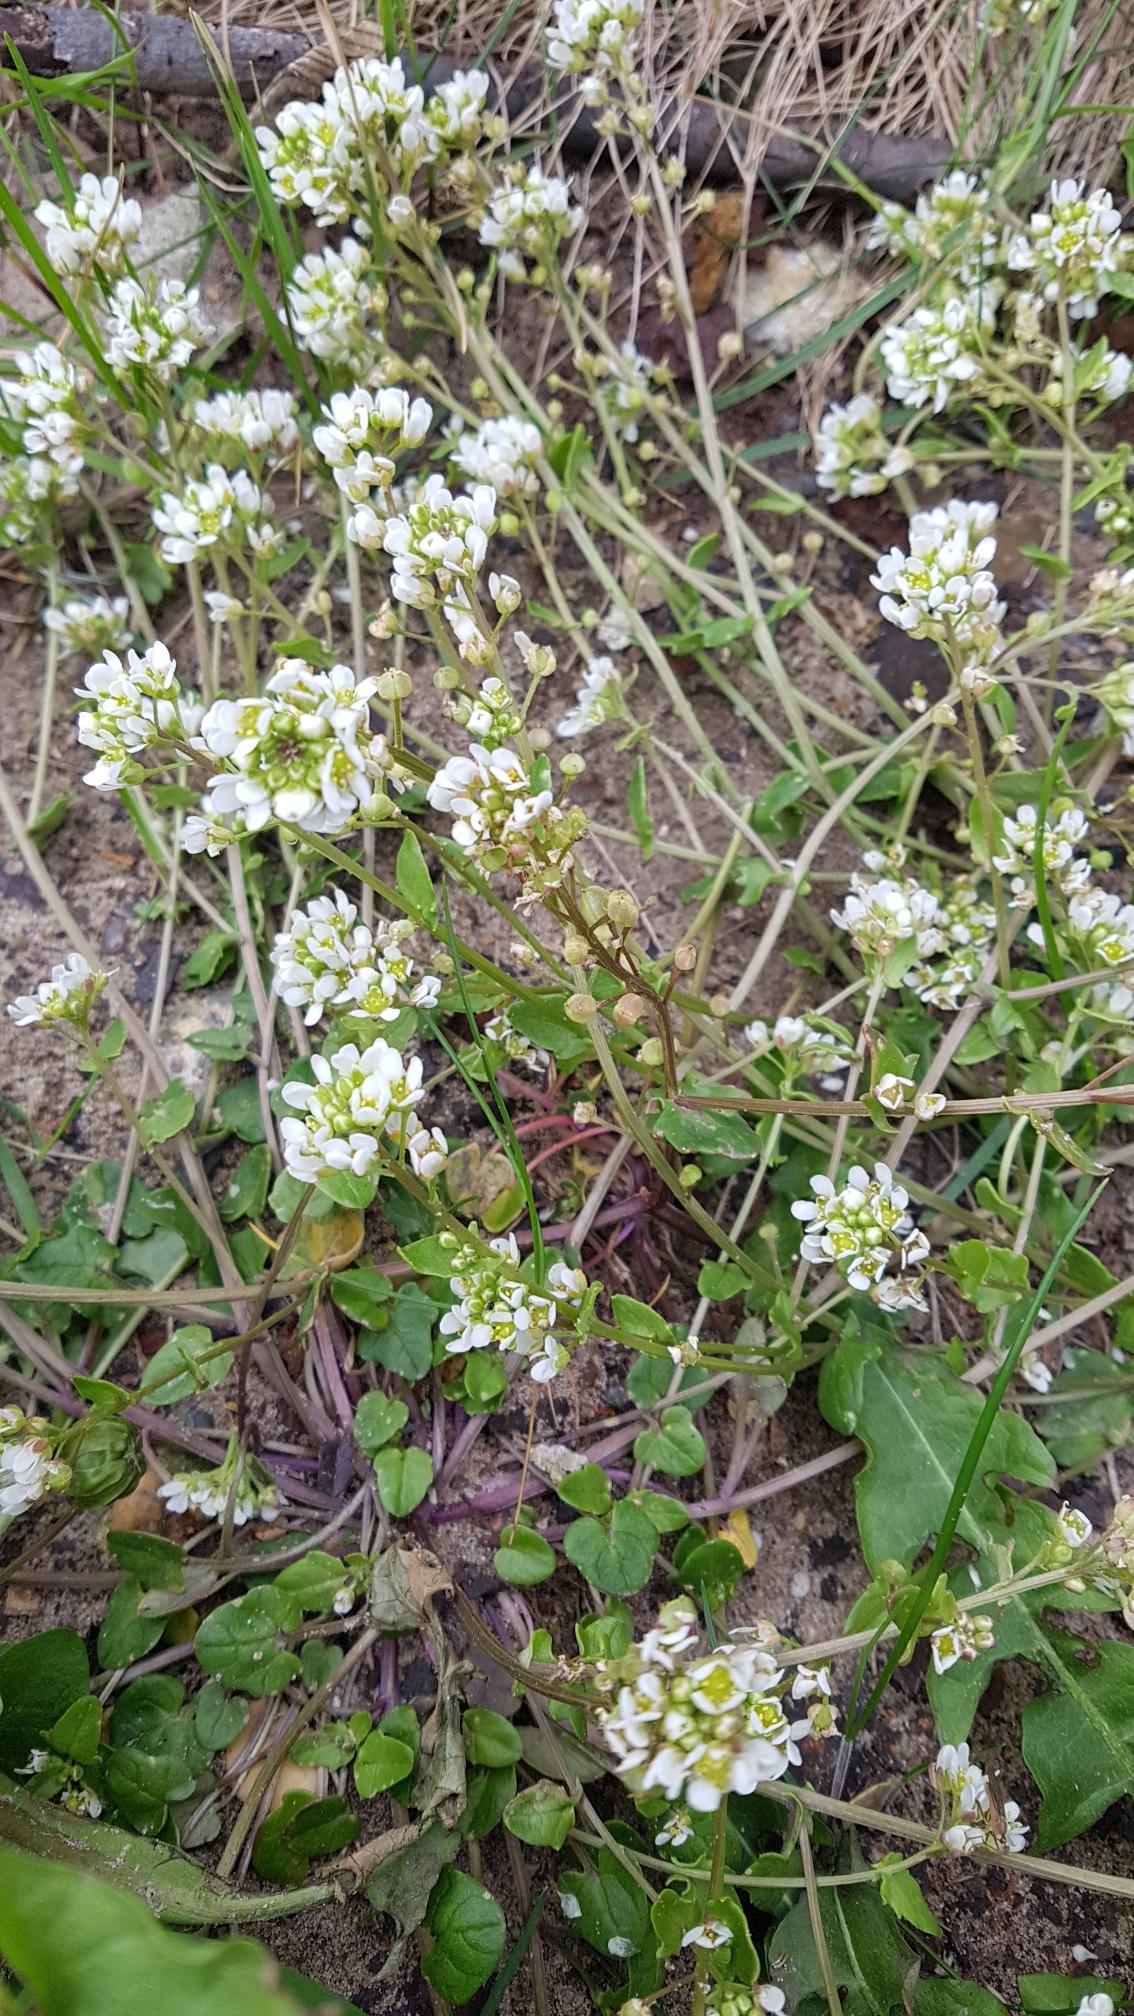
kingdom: Plantae
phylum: Tracheophyta
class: Magnoliopsida
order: Brassicales
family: Brassicaceae
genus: Cochlearia
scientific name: Cochlearia officinalis
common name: Læge-kokleare (underart)
